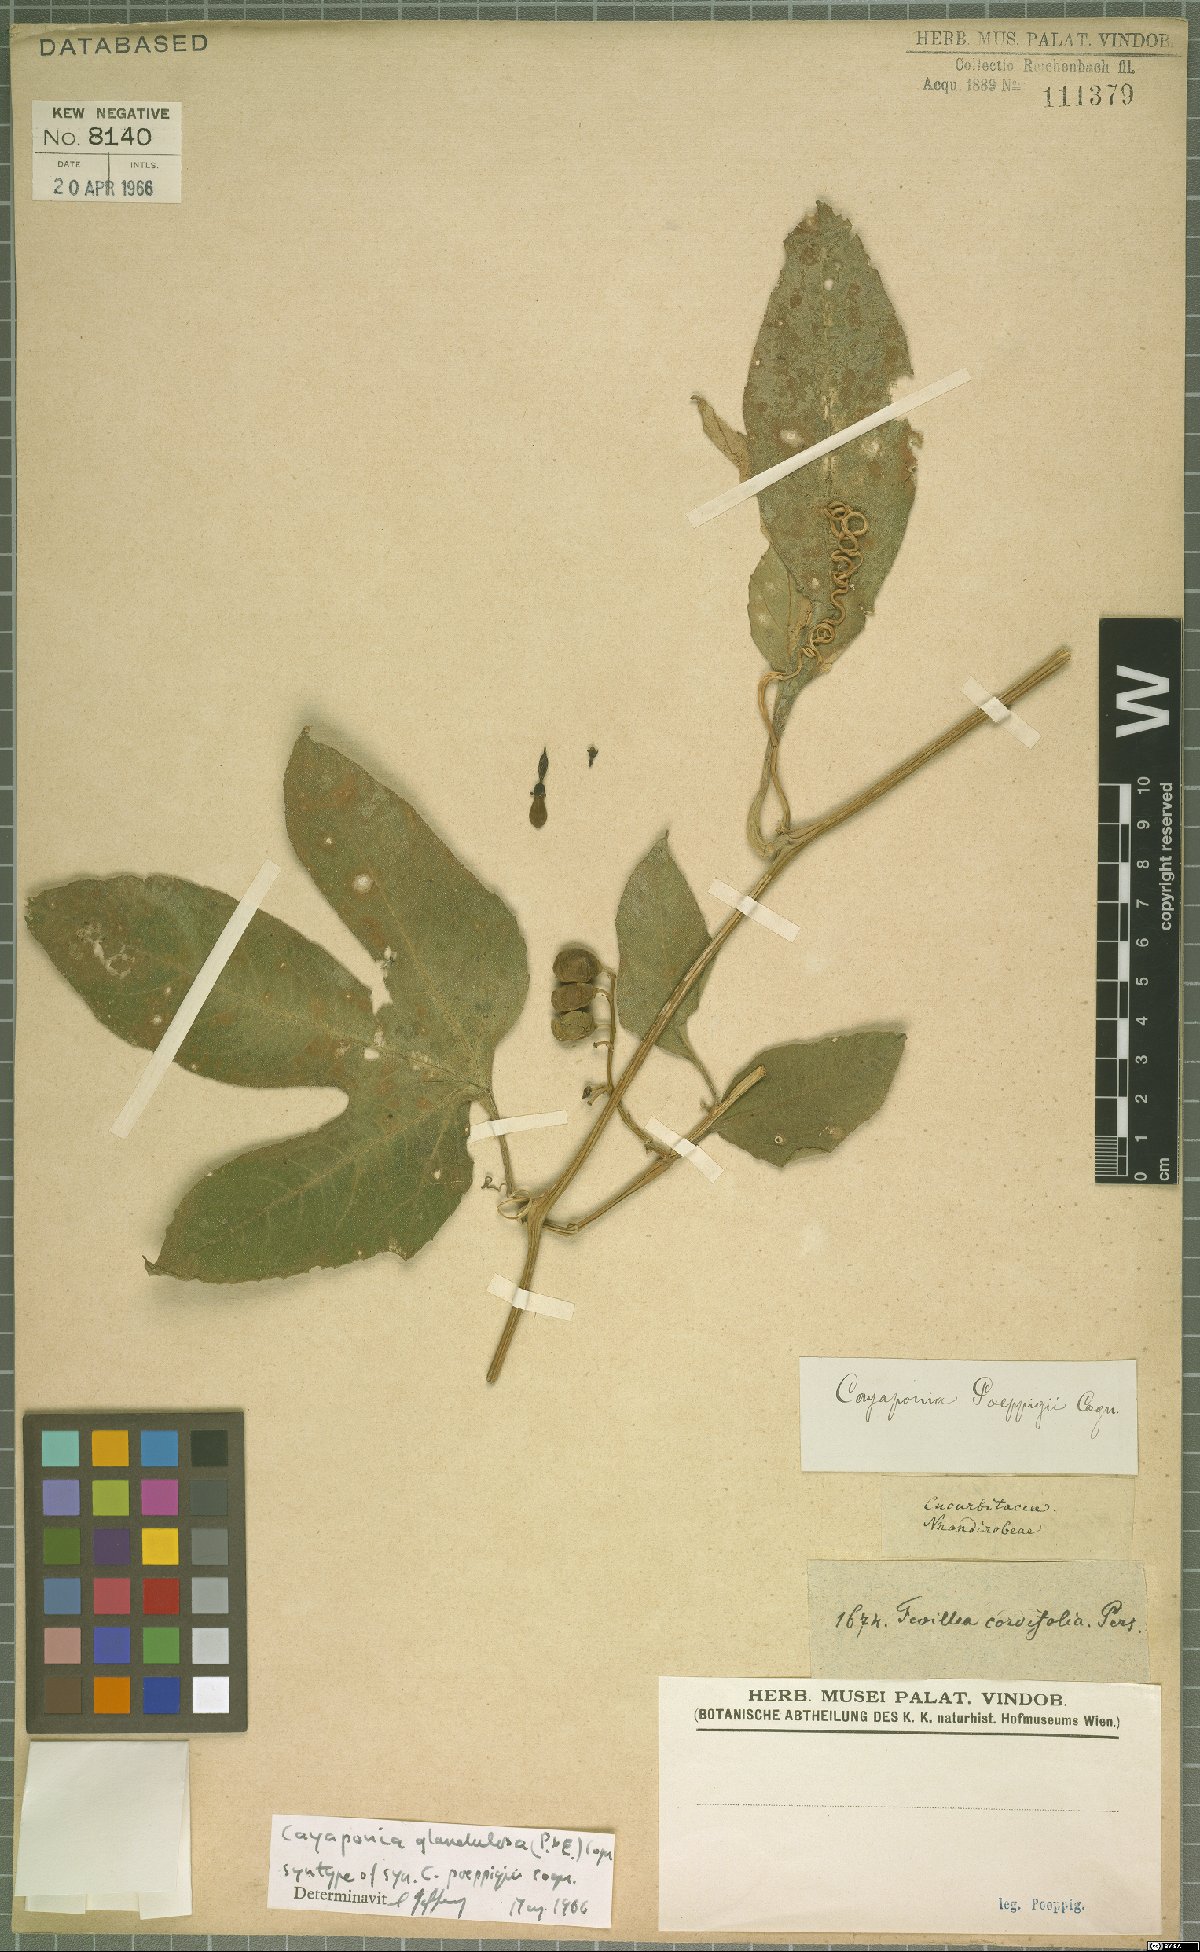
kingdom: Plantae
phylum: Tracheophyta
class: Magnoliopsida
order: Cucurbitales
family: Cucurbitaceae
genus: Cayaponia
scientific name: Cayaponia glandulosa
